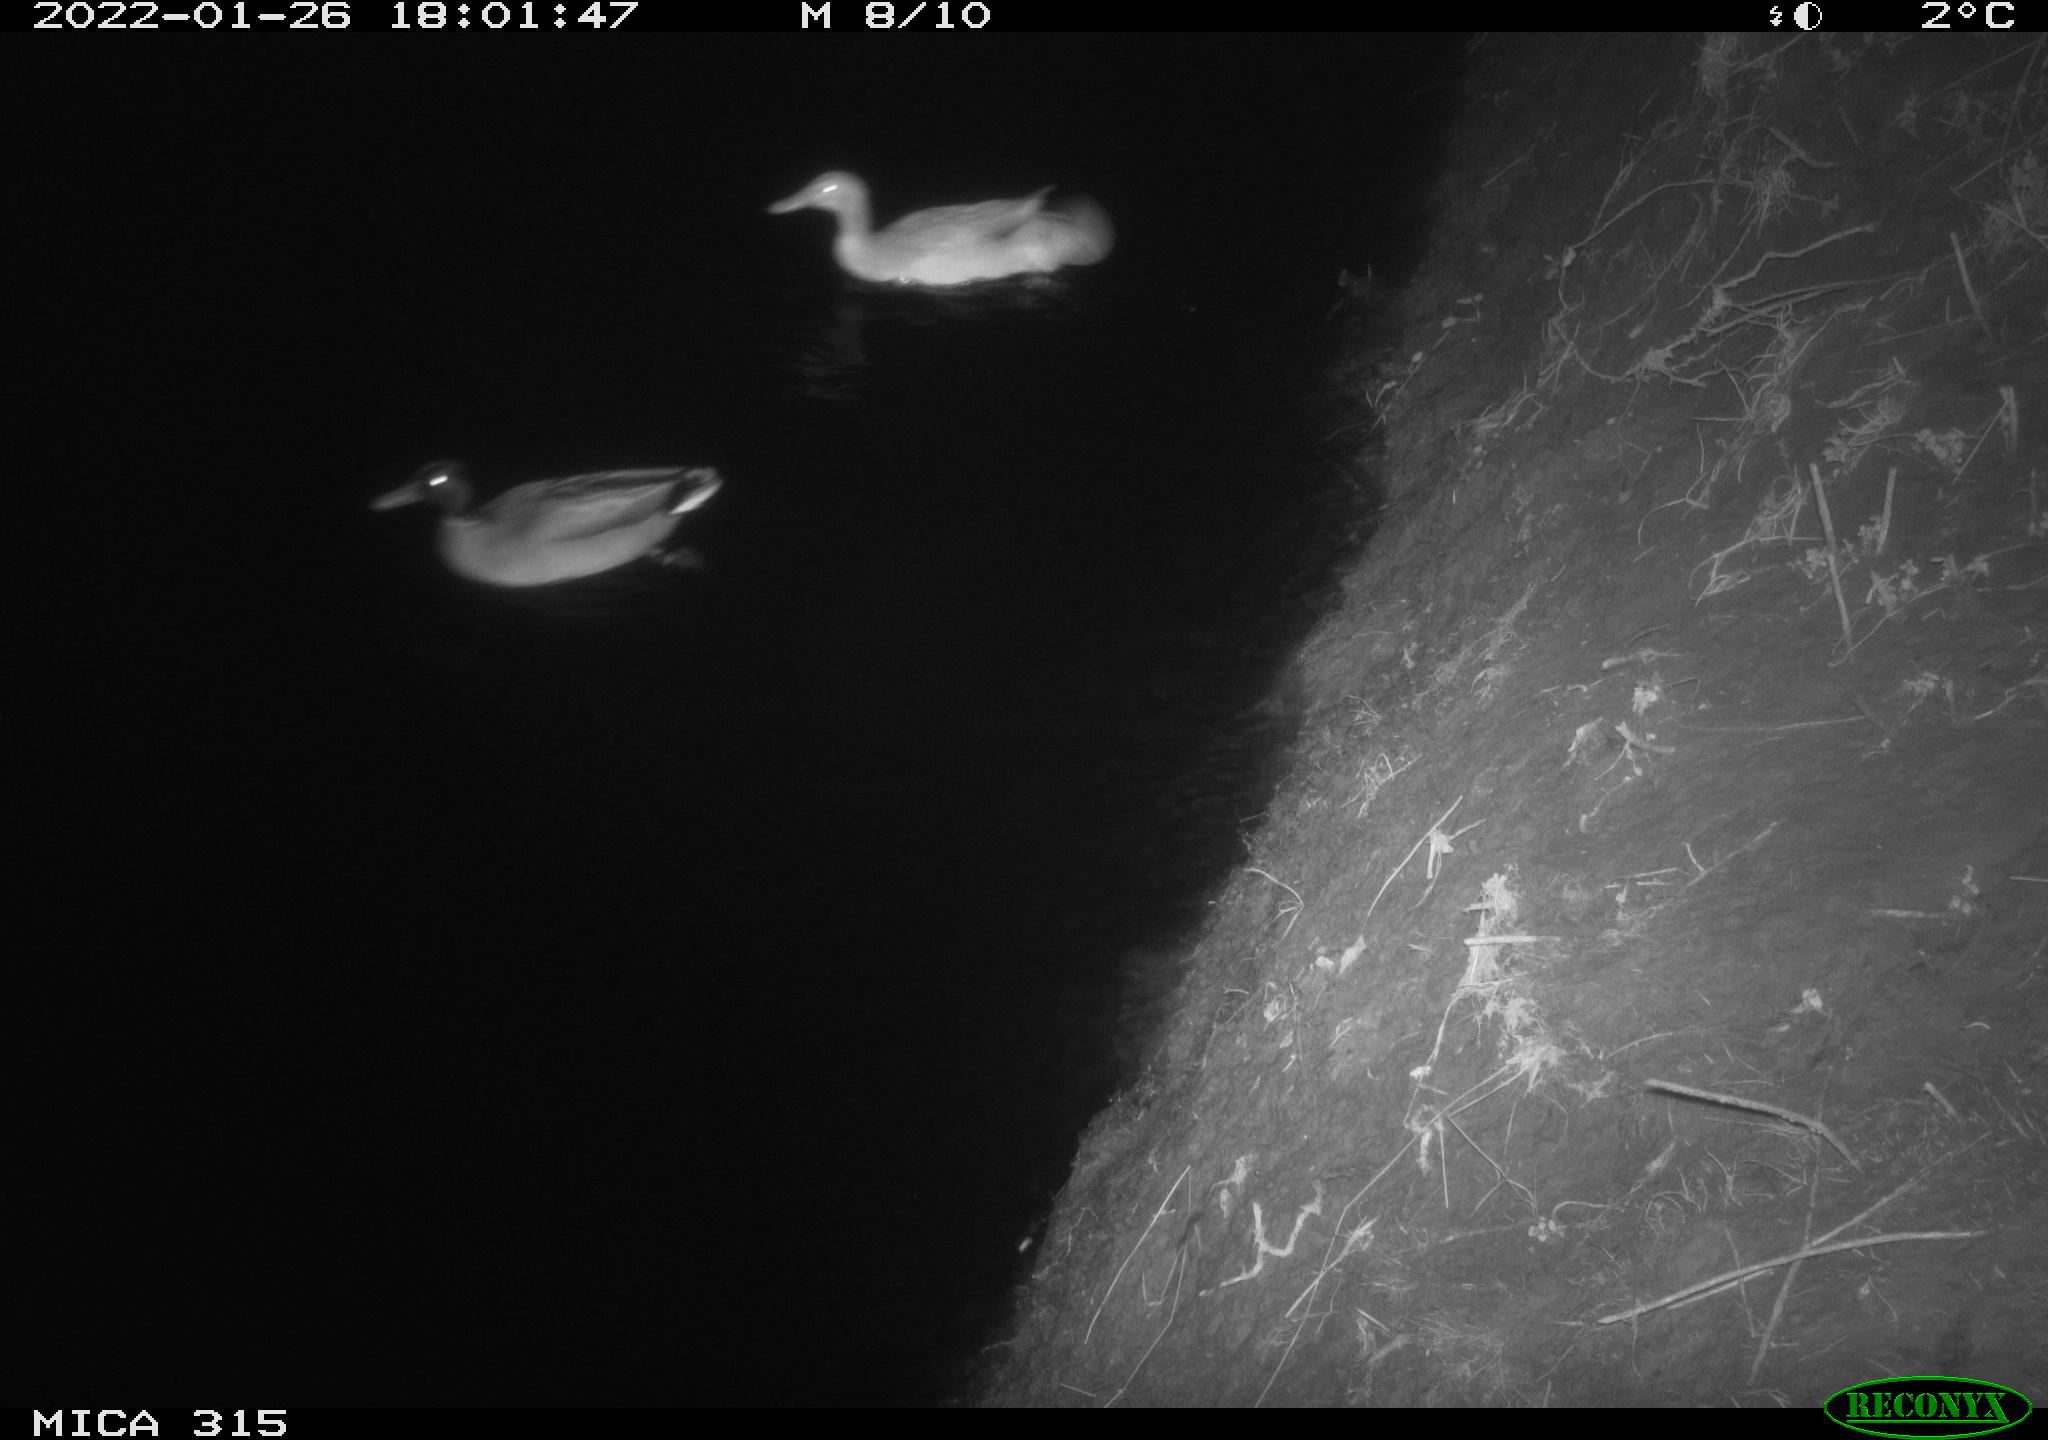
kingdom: Animalia
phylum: Chordata
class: Aves
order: Anseriformes
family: Anatidae
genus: Anas
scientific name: Anas
